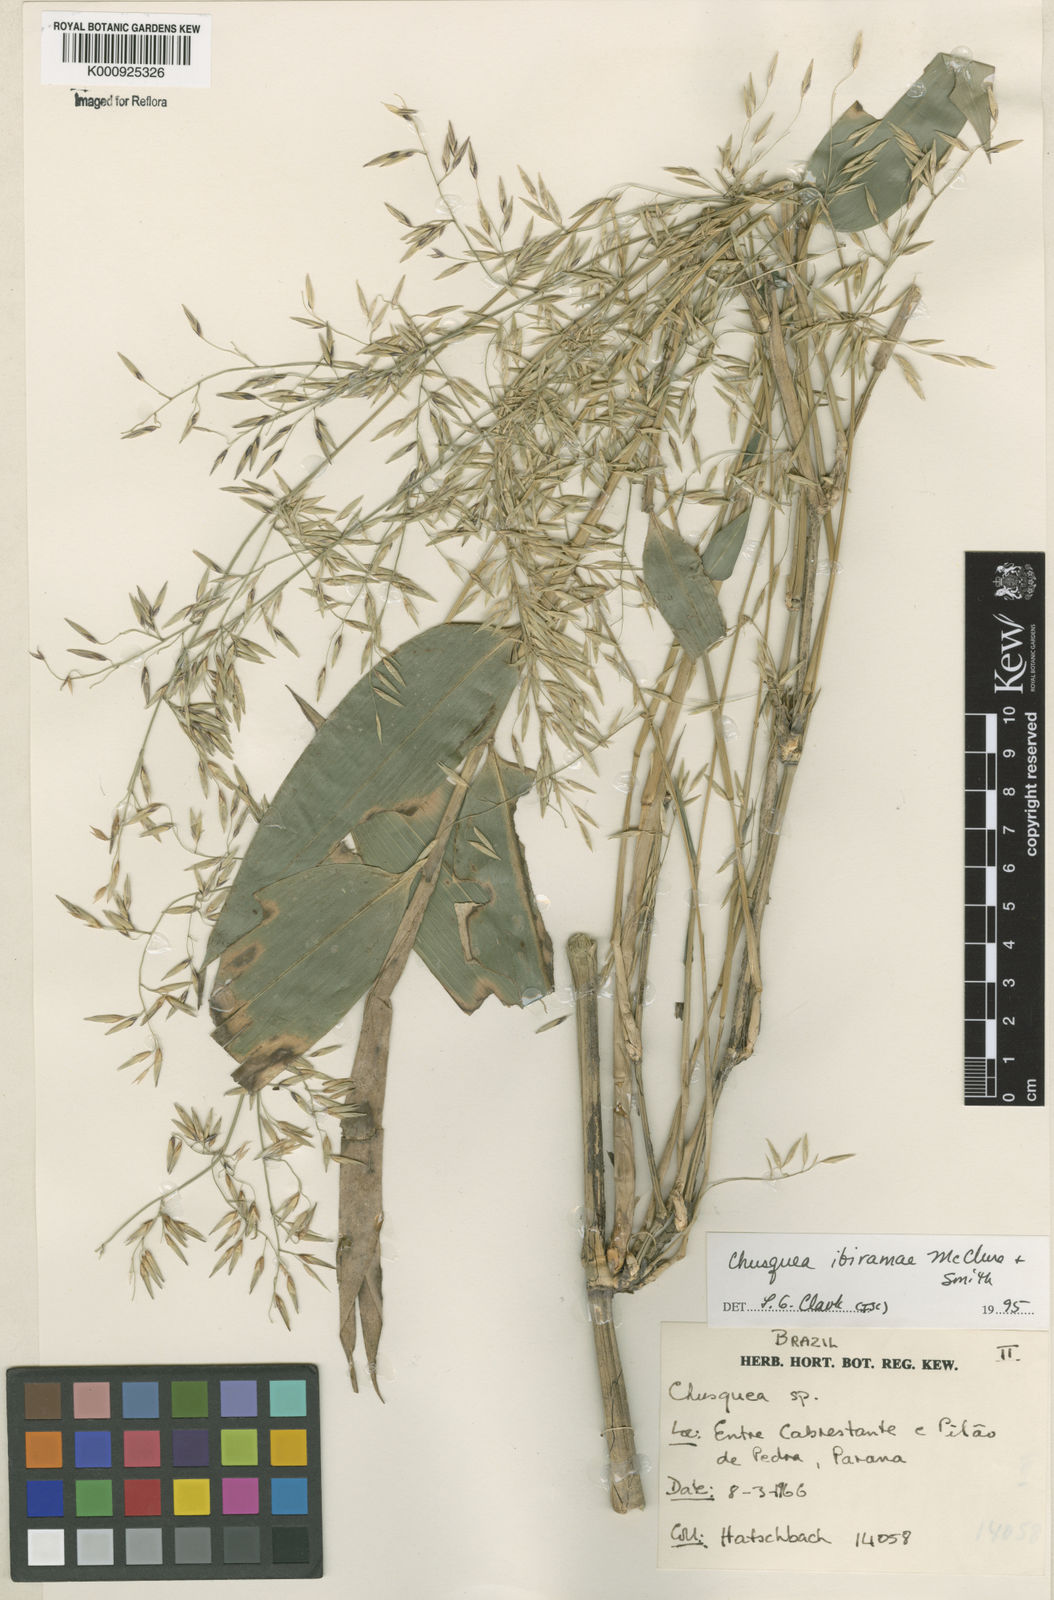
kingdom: Plantae
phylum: Tracheophyta
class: Liliopsida
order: Poales
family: Poaceae
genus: Chusquea
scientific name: Chusquea ibiramae
